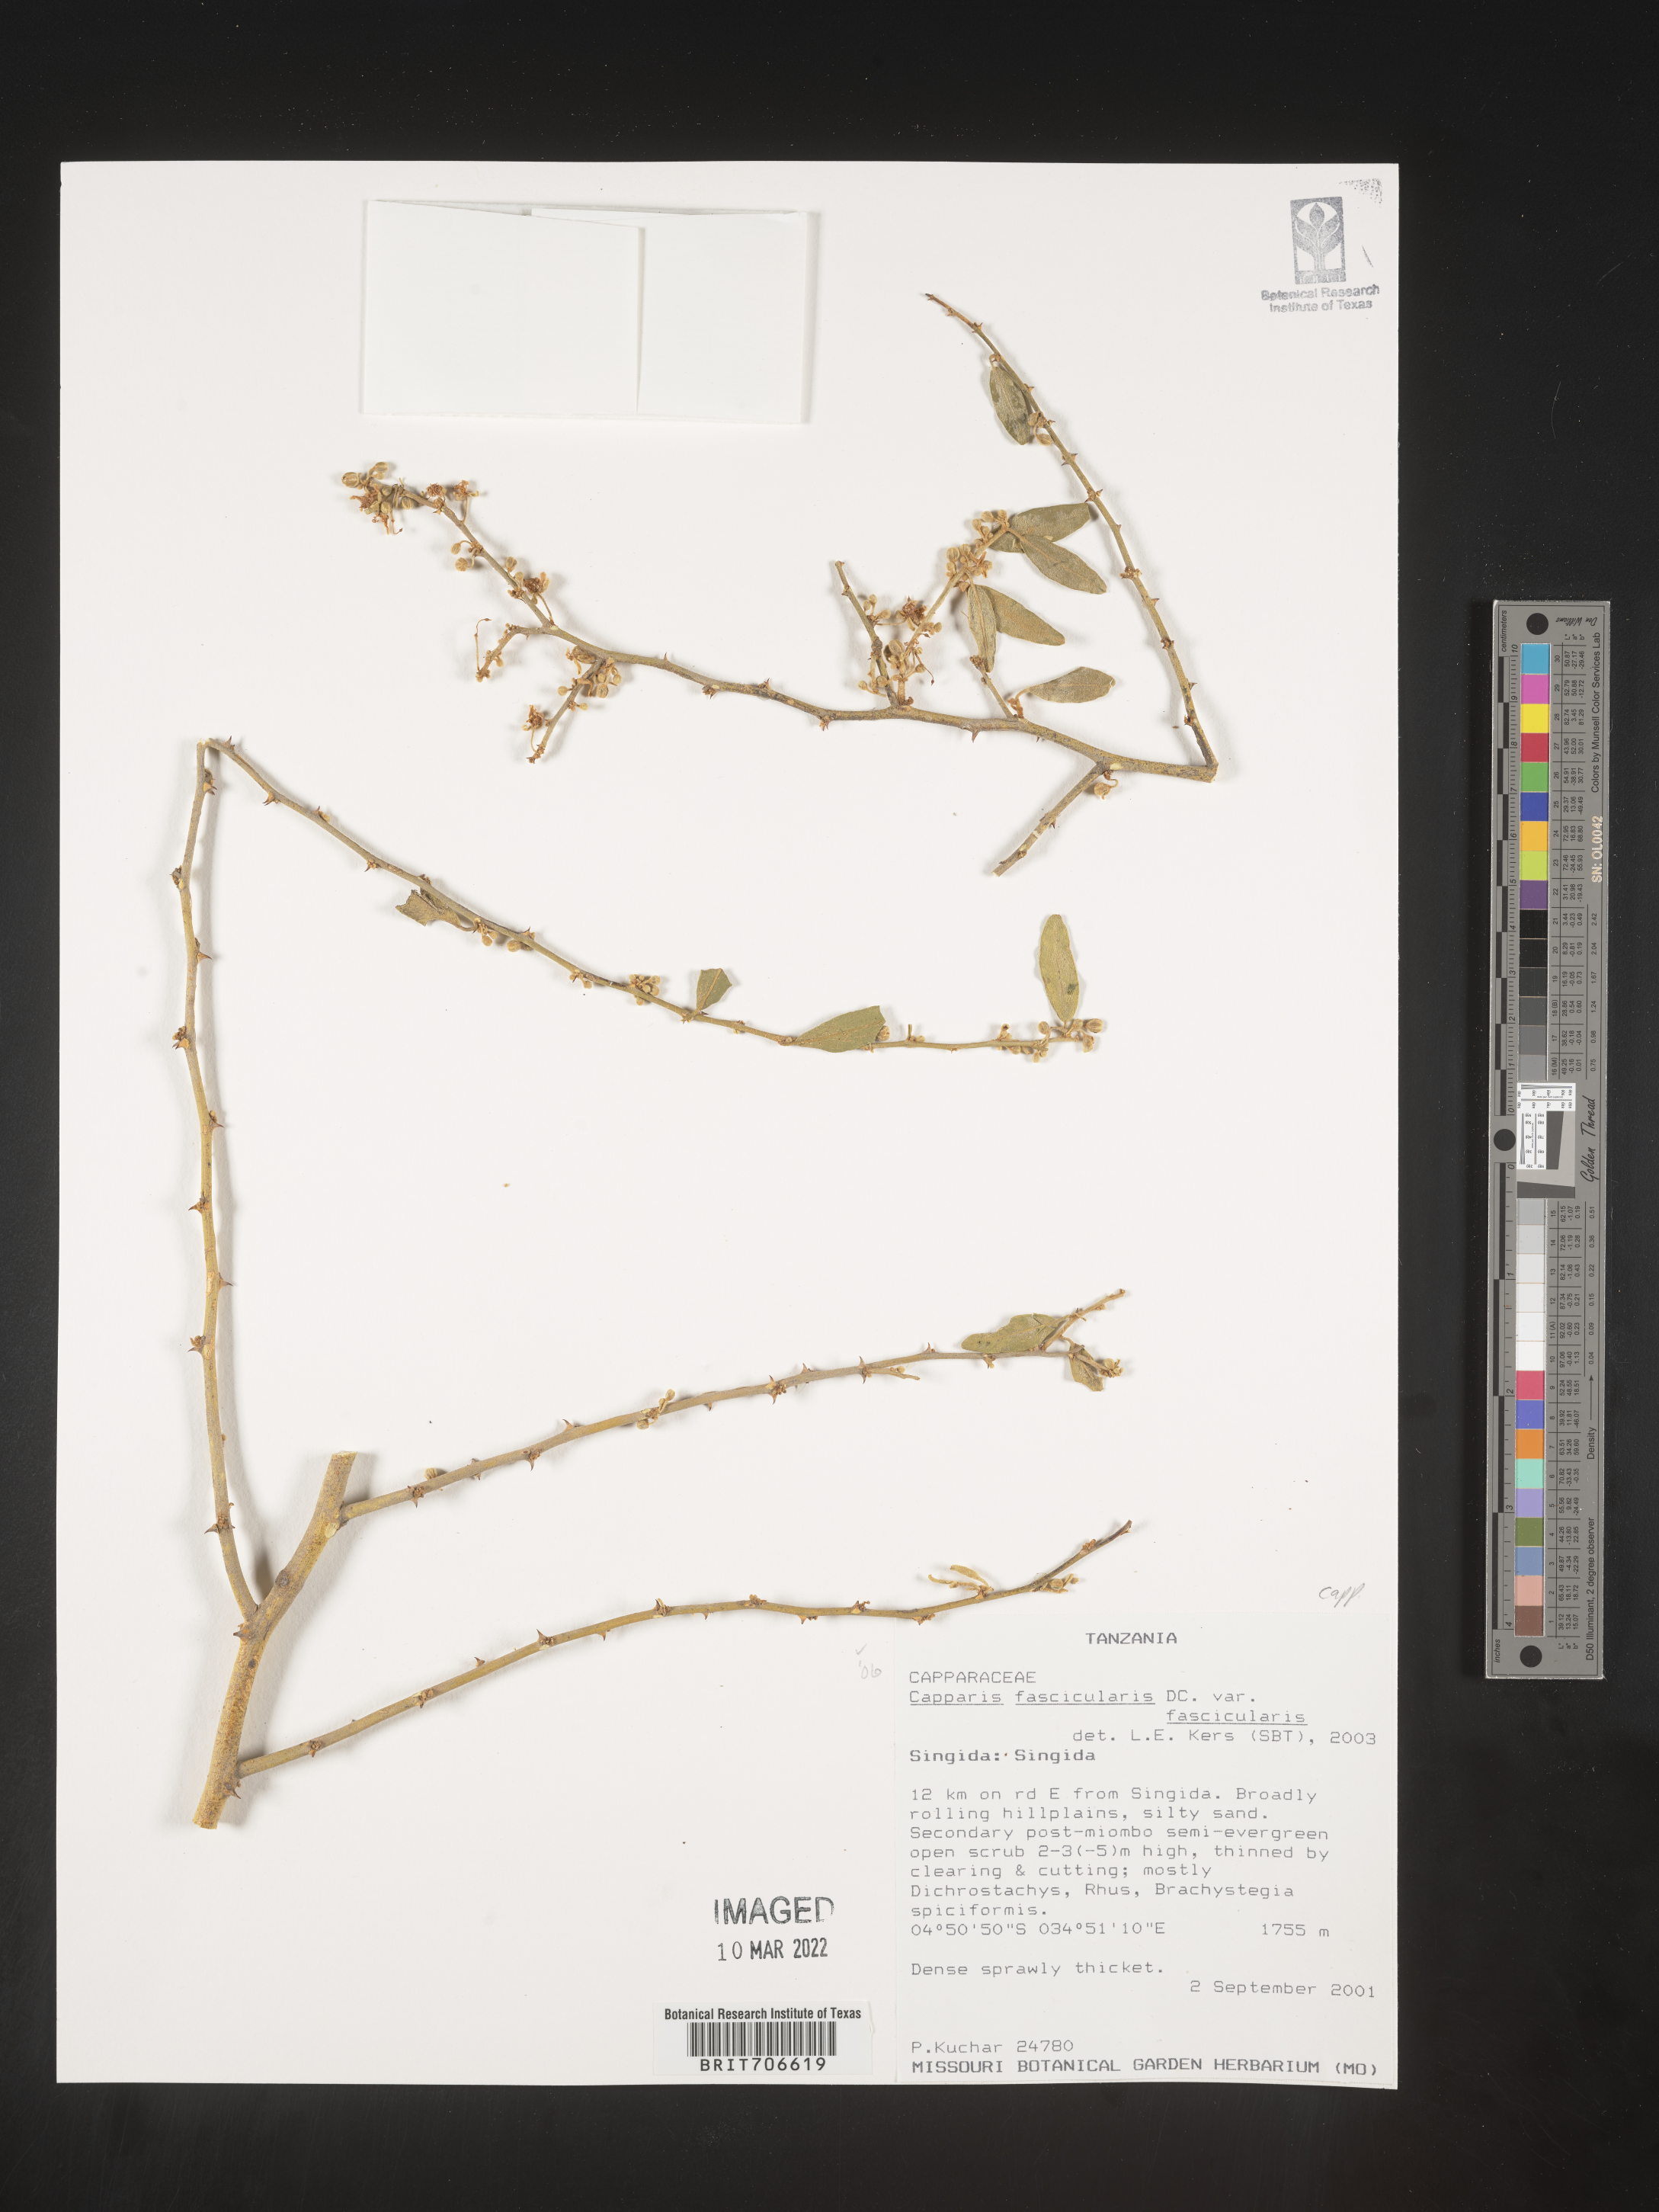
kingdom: Plantae
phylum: Tracheophyta
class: Magnoliopsida
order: Brassicales
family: Capparaceae
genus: Capparis
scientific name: Capparis
